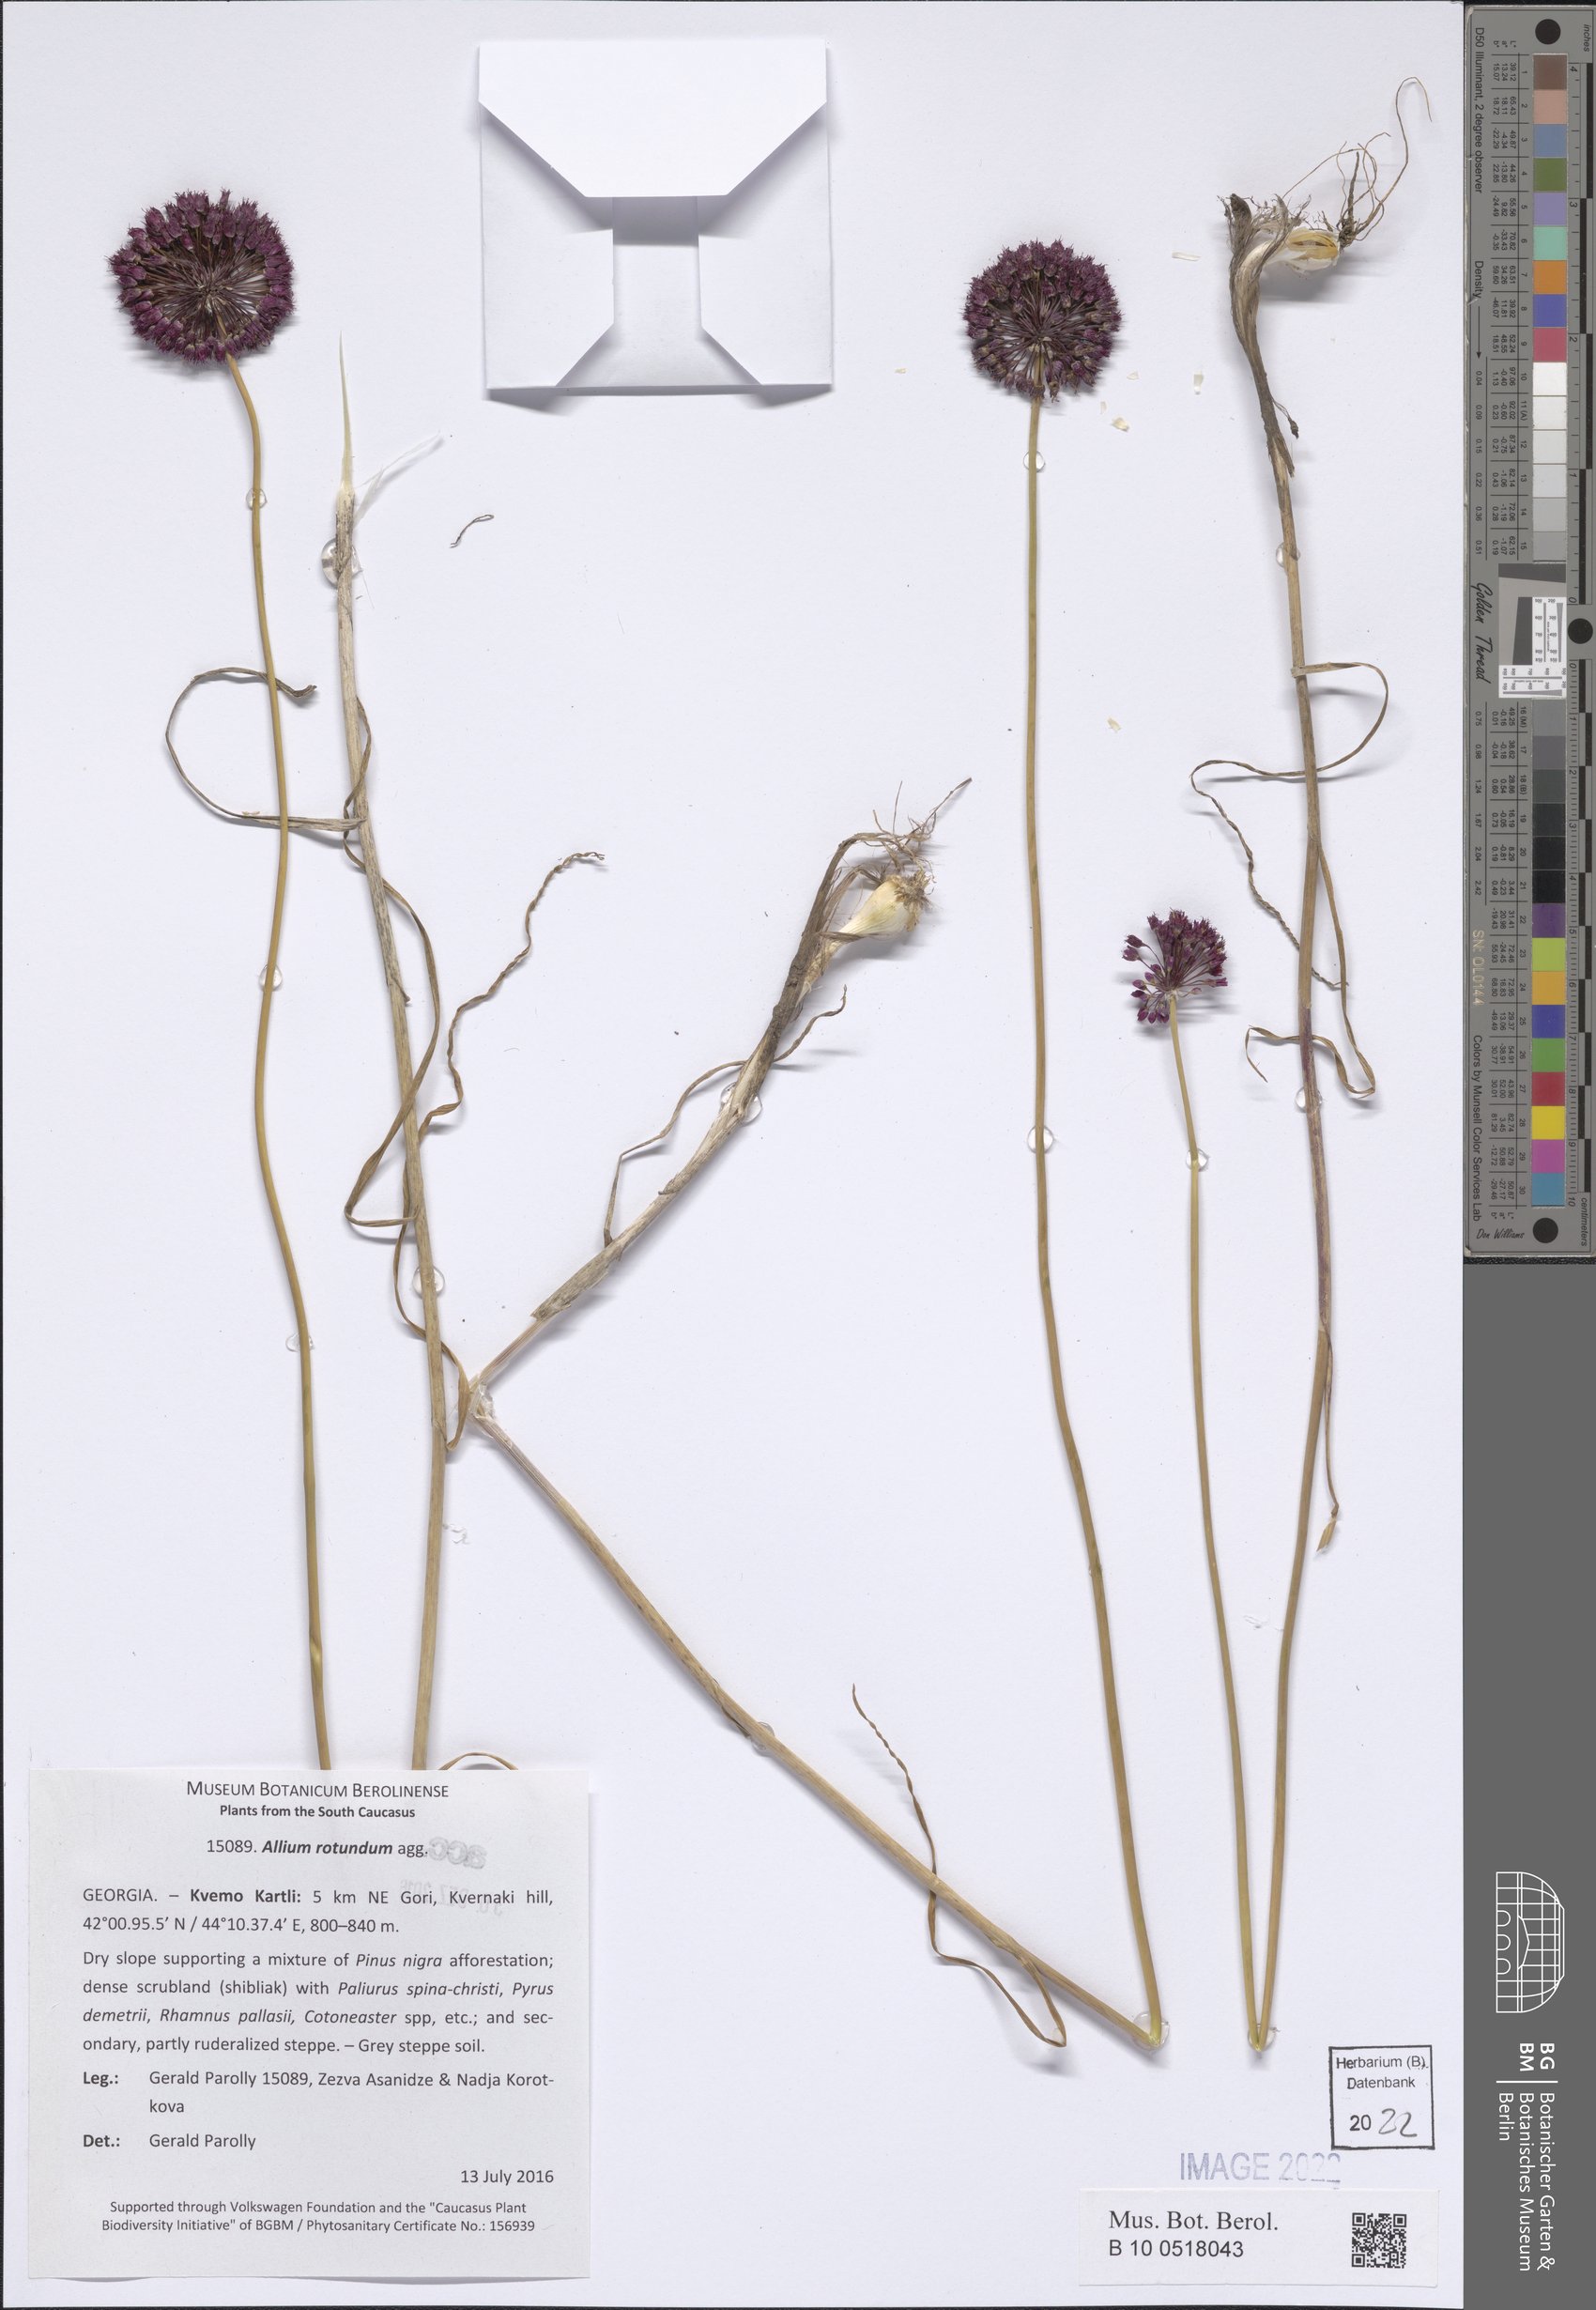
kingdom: Plantae
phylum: Tracheophyta
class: Liliopsida
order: Asparagales
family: Amaryllidaceae
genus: Allium
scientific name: Allium rotundum
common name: Sand leek
